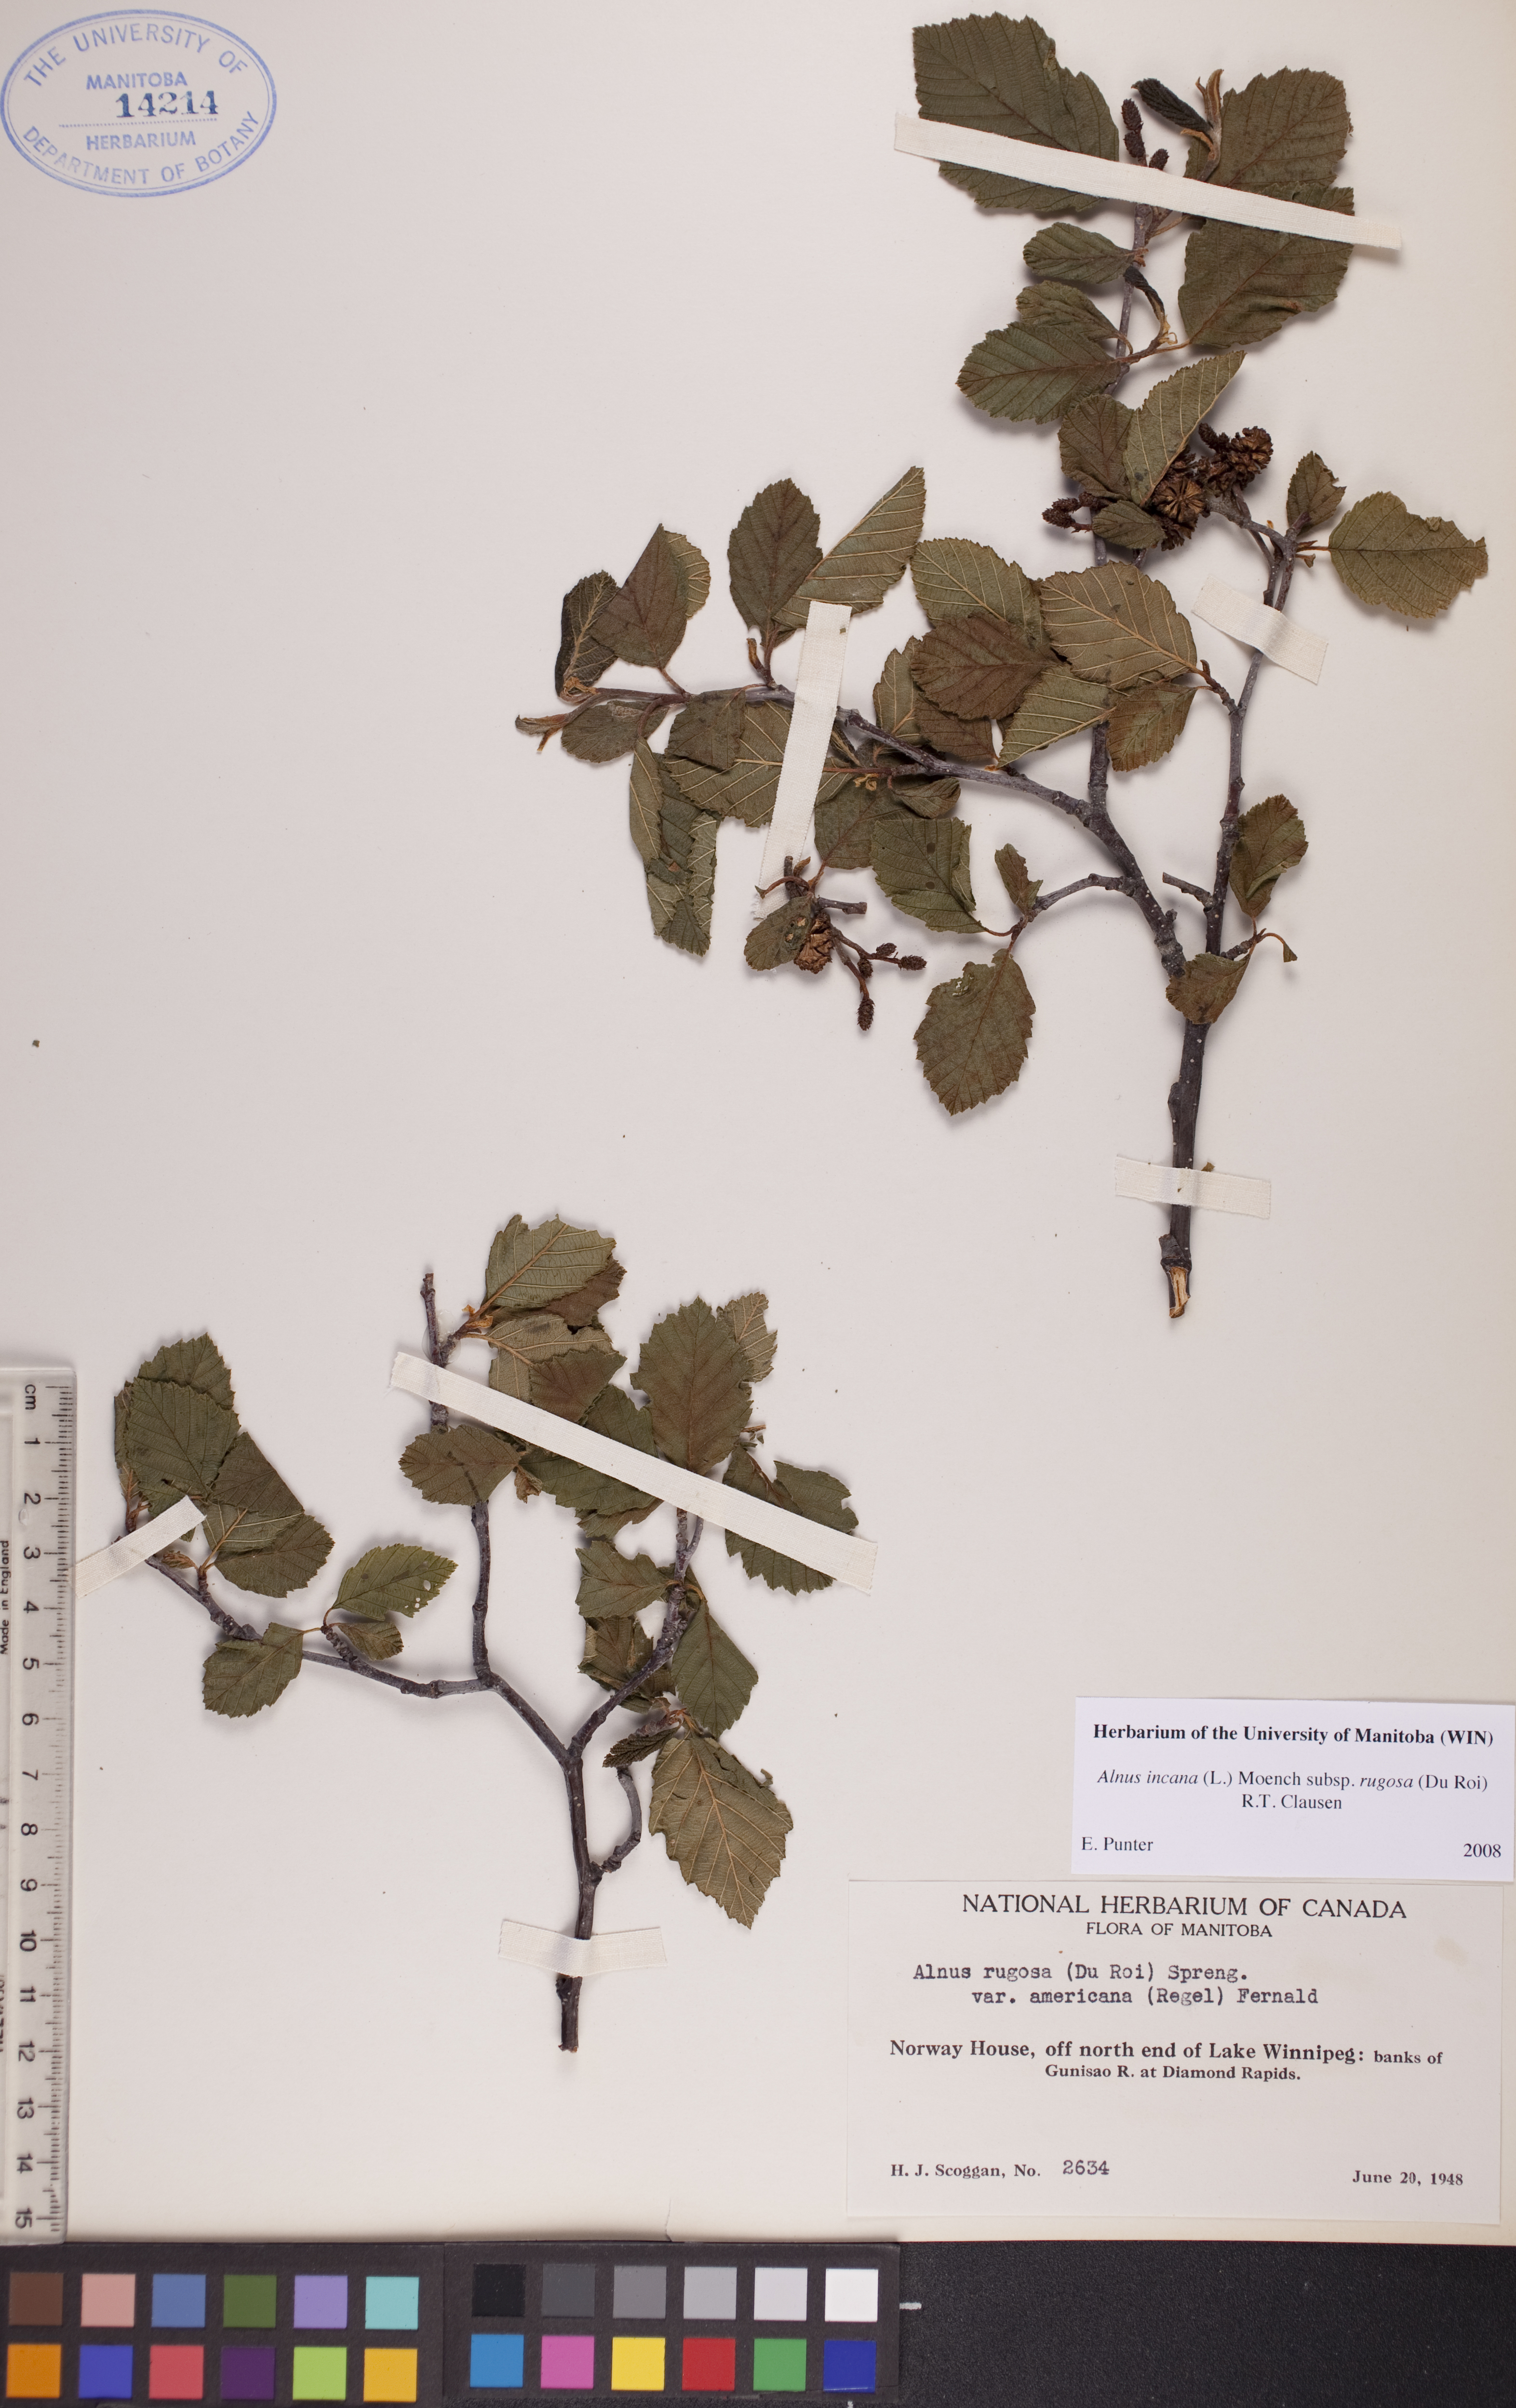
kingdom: Plantae
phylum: Tracheophyta
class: Magnoliopsida
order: Fagales
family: Betulaceae
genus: Alnus
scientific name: Alnus incana
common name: Grey alder
